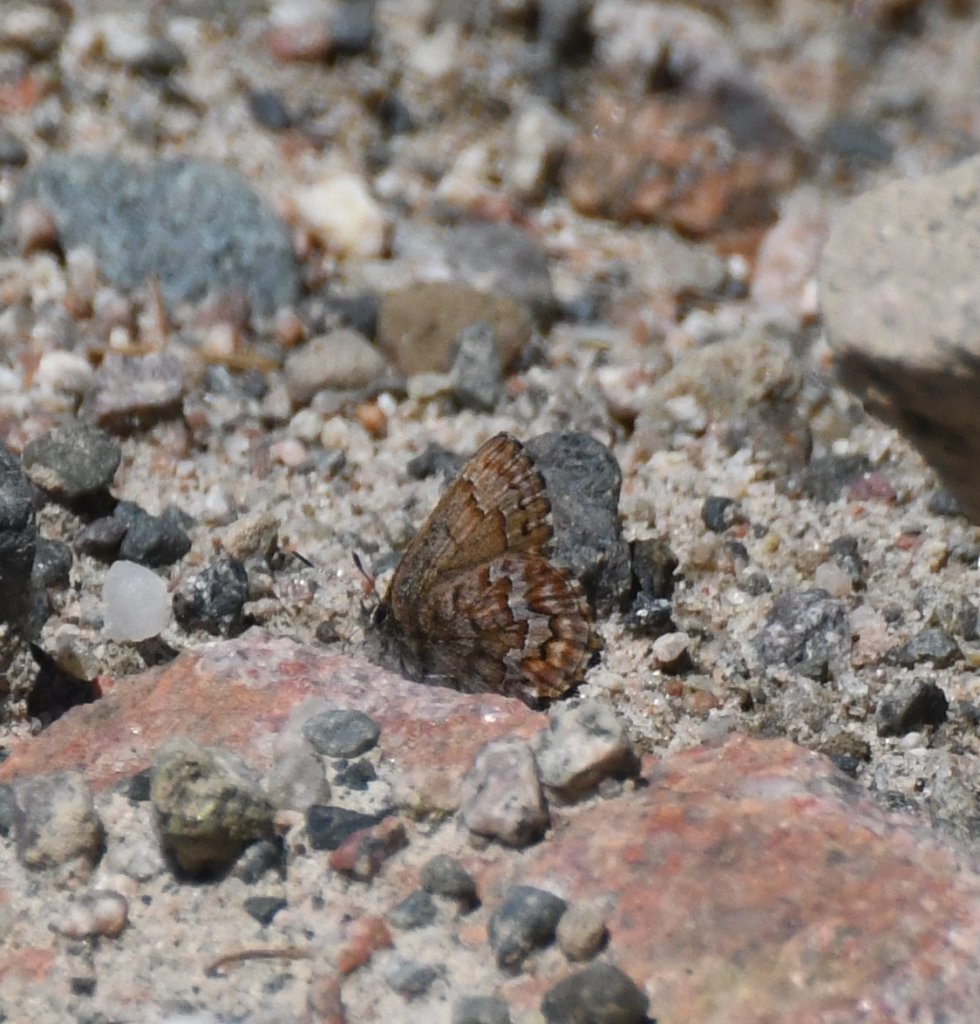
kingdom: Animalia
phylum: Arthropoda
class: Insecta
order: Lepidoptera
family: Lycaenidae
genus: Incisalia
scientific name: Incisalia niphon
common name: Eastern Pine Elfin
